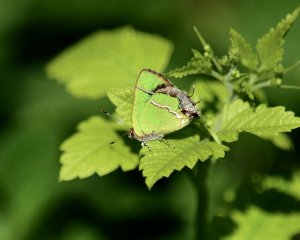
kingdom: Animalia
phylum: Arthropoda
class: Insecta
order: Lepidoptera
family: Lycaenidae
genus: Chlorostrymon
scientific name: Chlorostrymon simaethis
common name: Silver-banded Hairstreak
